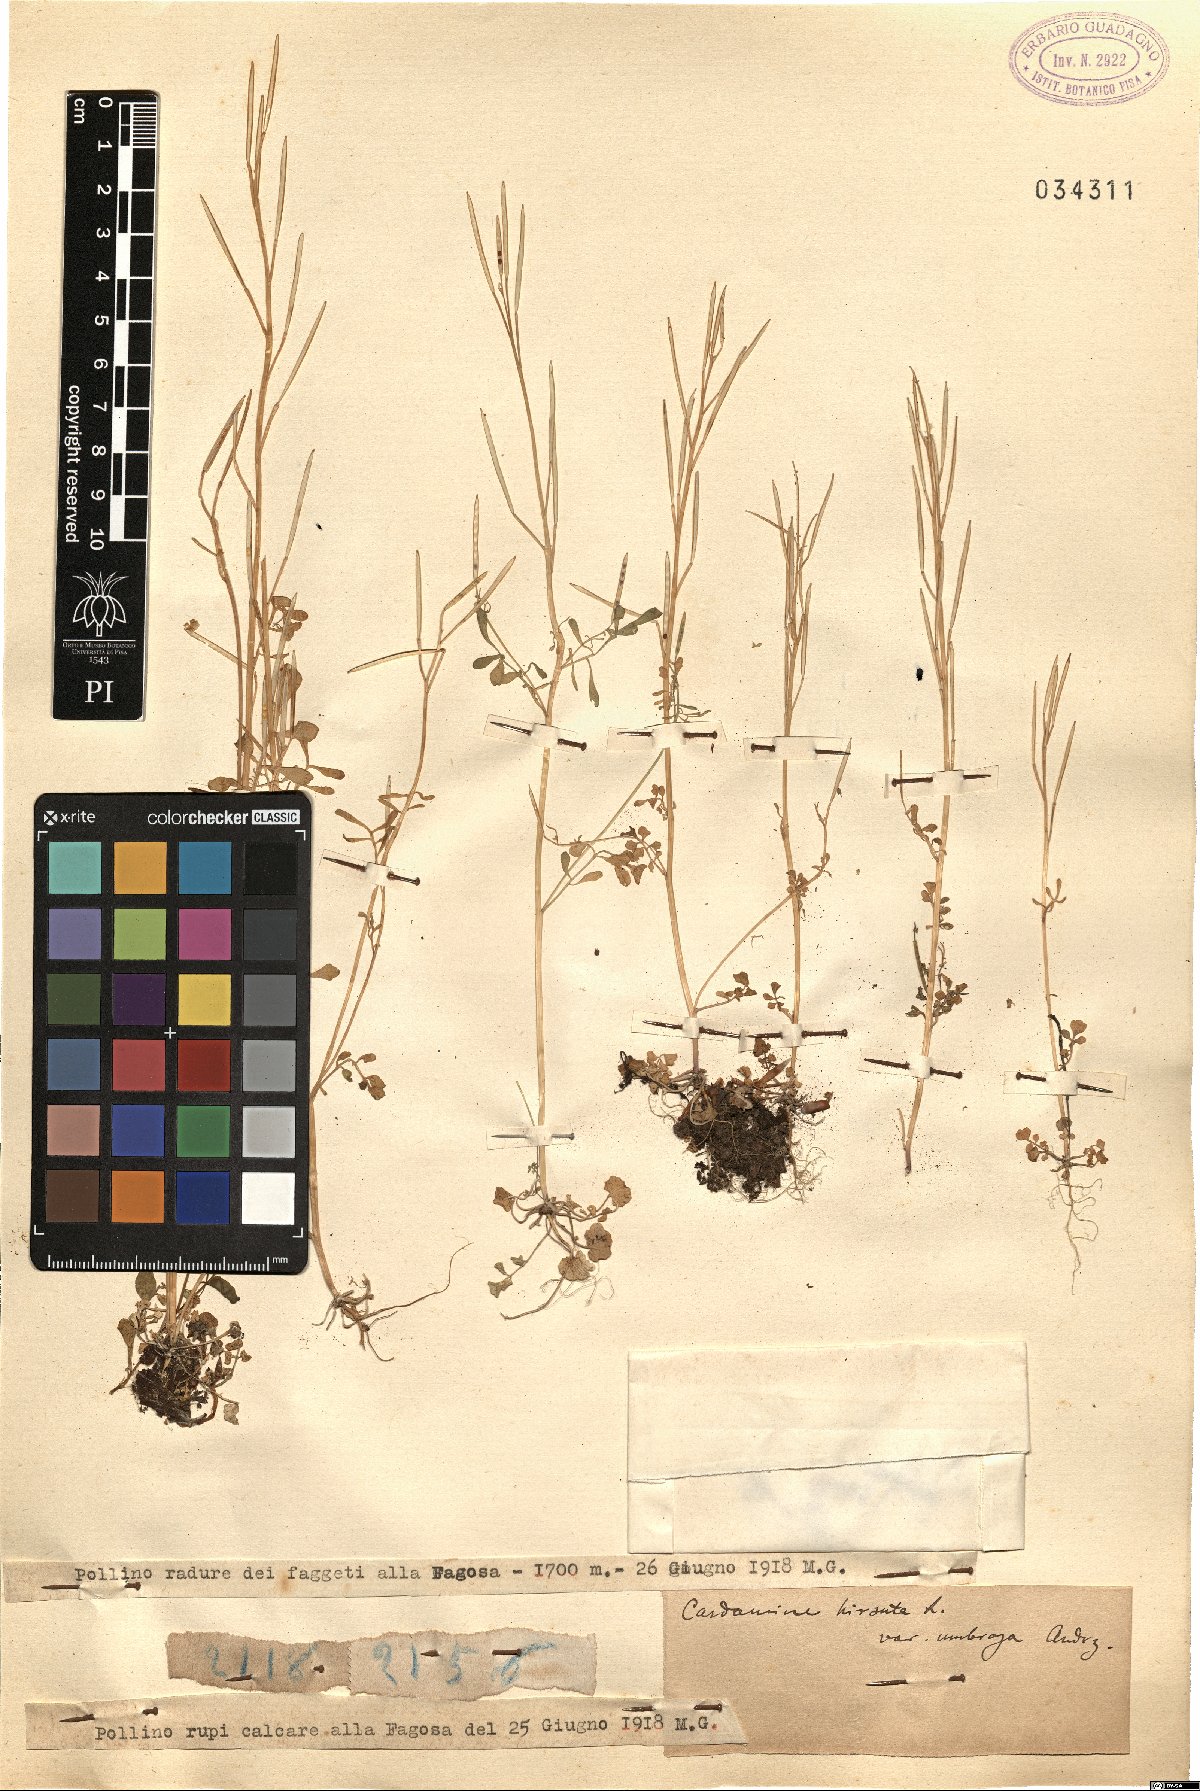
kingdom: Plantae
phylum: Tracheophyta
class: Magnoliopsida
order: Brassicales
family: Brassicaceae
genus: Cardamine
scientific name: Cardamine impatiens
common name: Narrow-leaved bitter-cress
